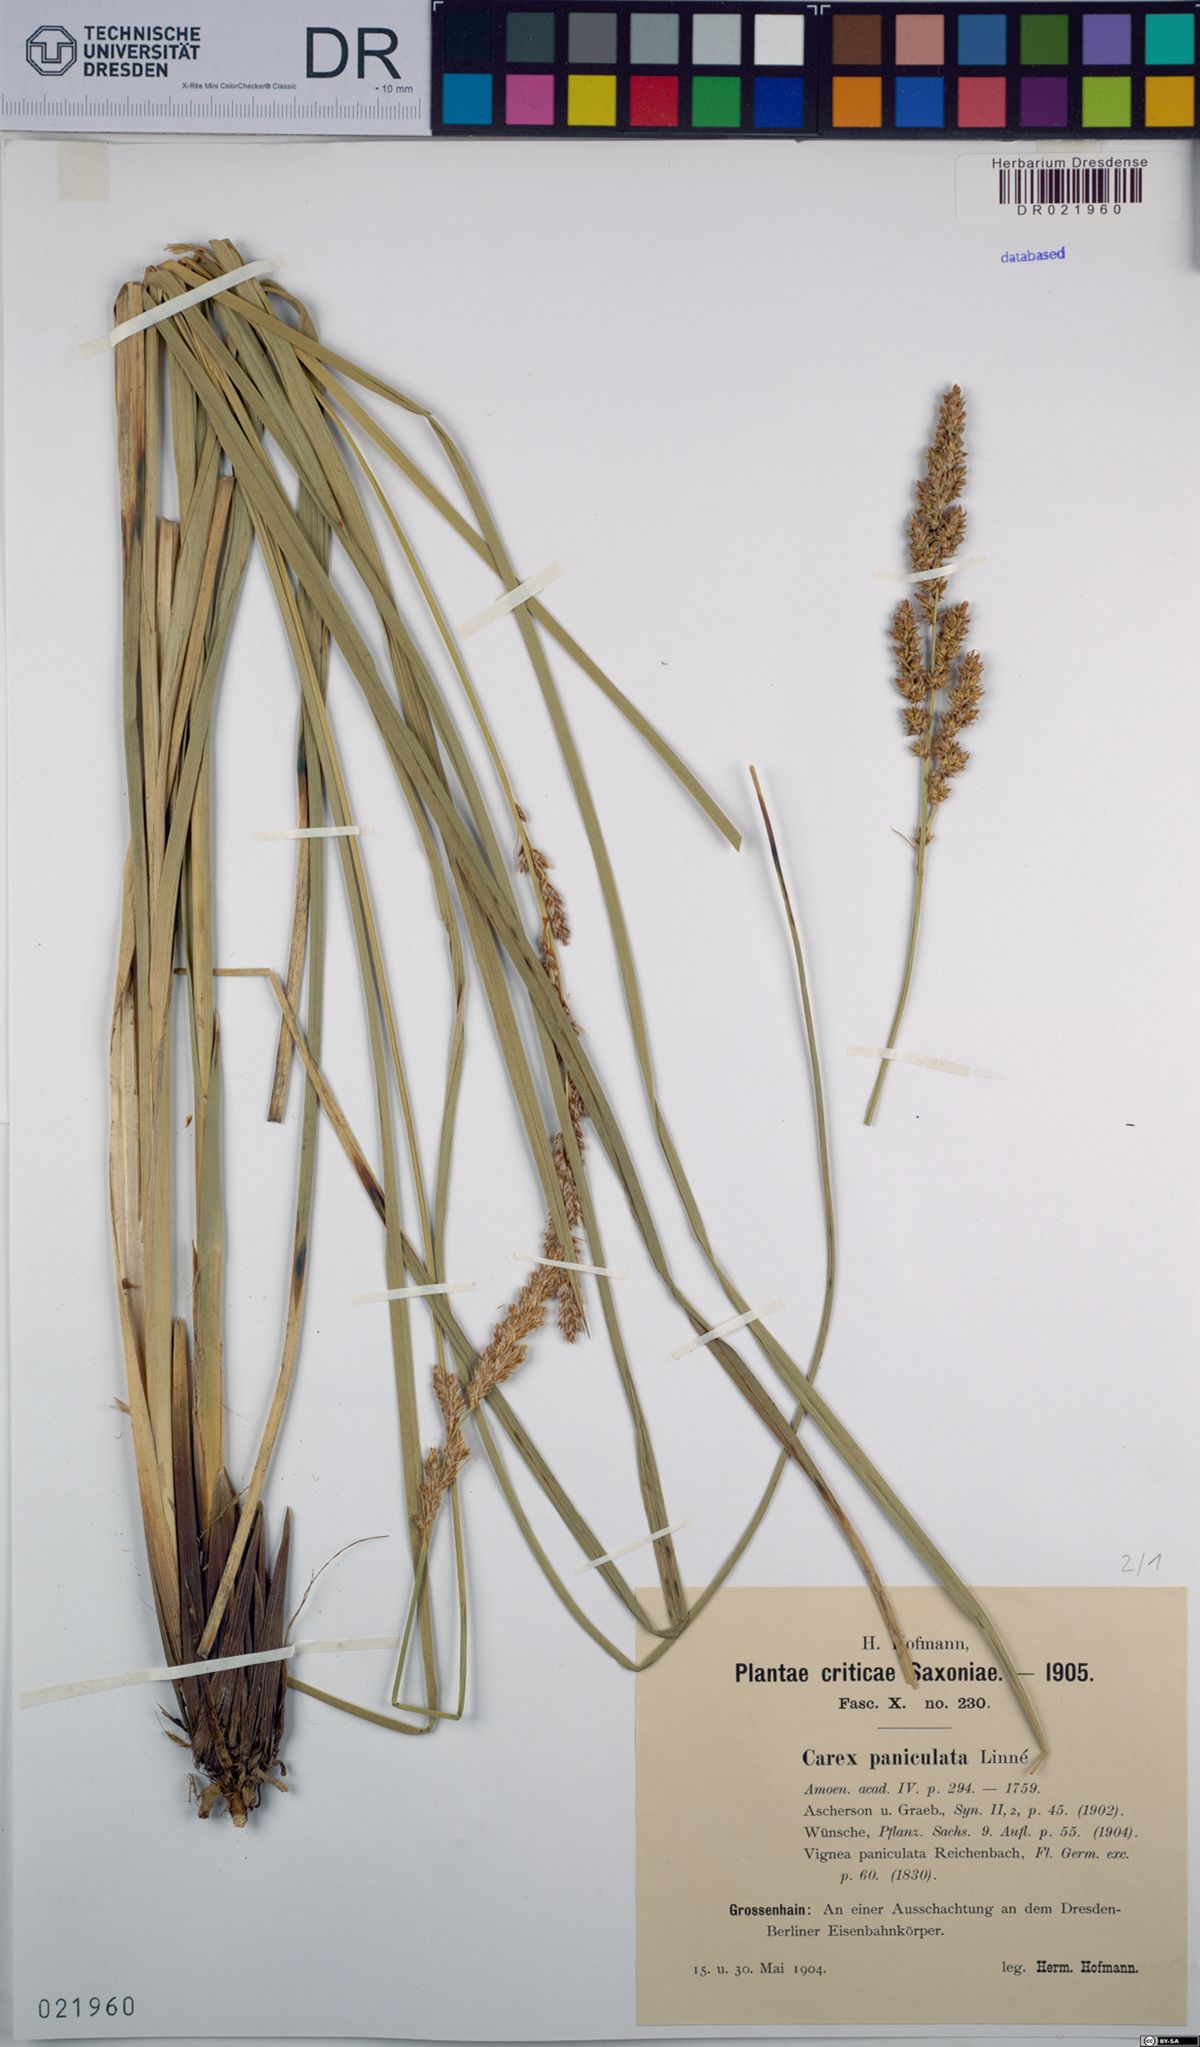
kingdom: Plantae
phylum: Tracheophyta
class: Liliopsida
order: Poales
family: Cyperaceae
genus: Carex
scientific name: Carex paniculata
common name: Greater tussock-sedge
